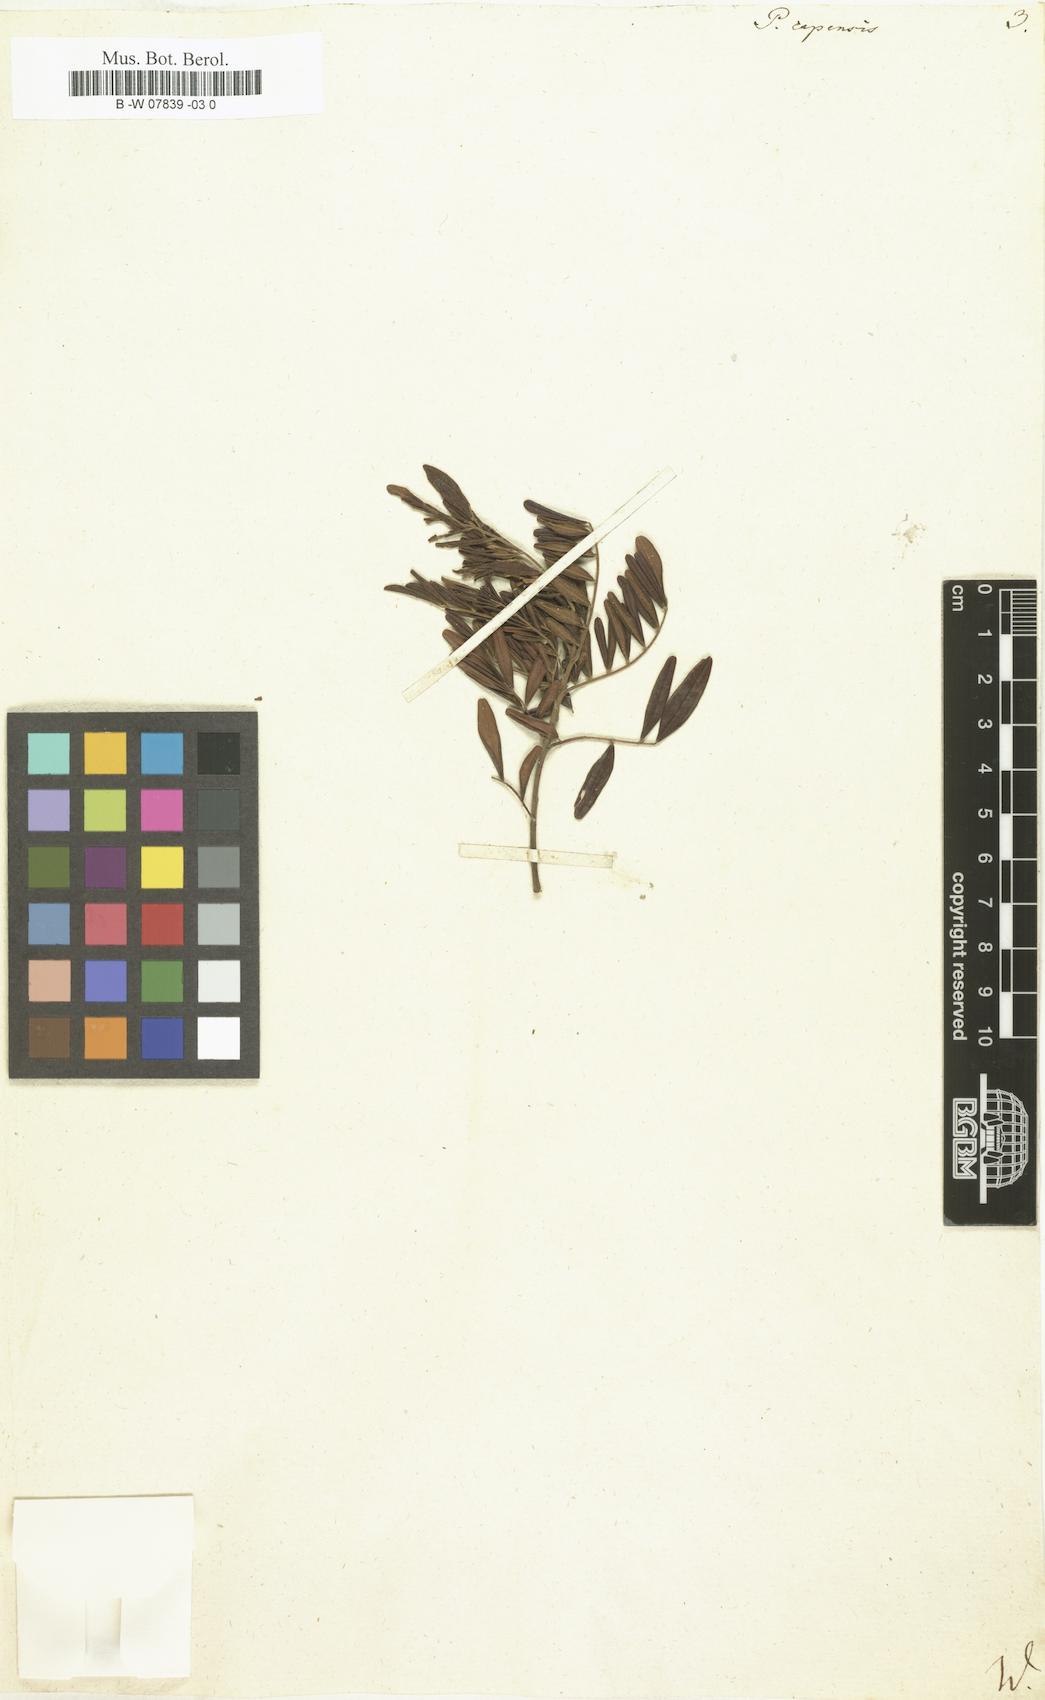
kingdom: Plantae
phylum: Tracheophyta
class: Magnoliopsida
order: Fabales
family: Fabaceae
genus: Virgilia
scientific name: Virgilia oroboides
